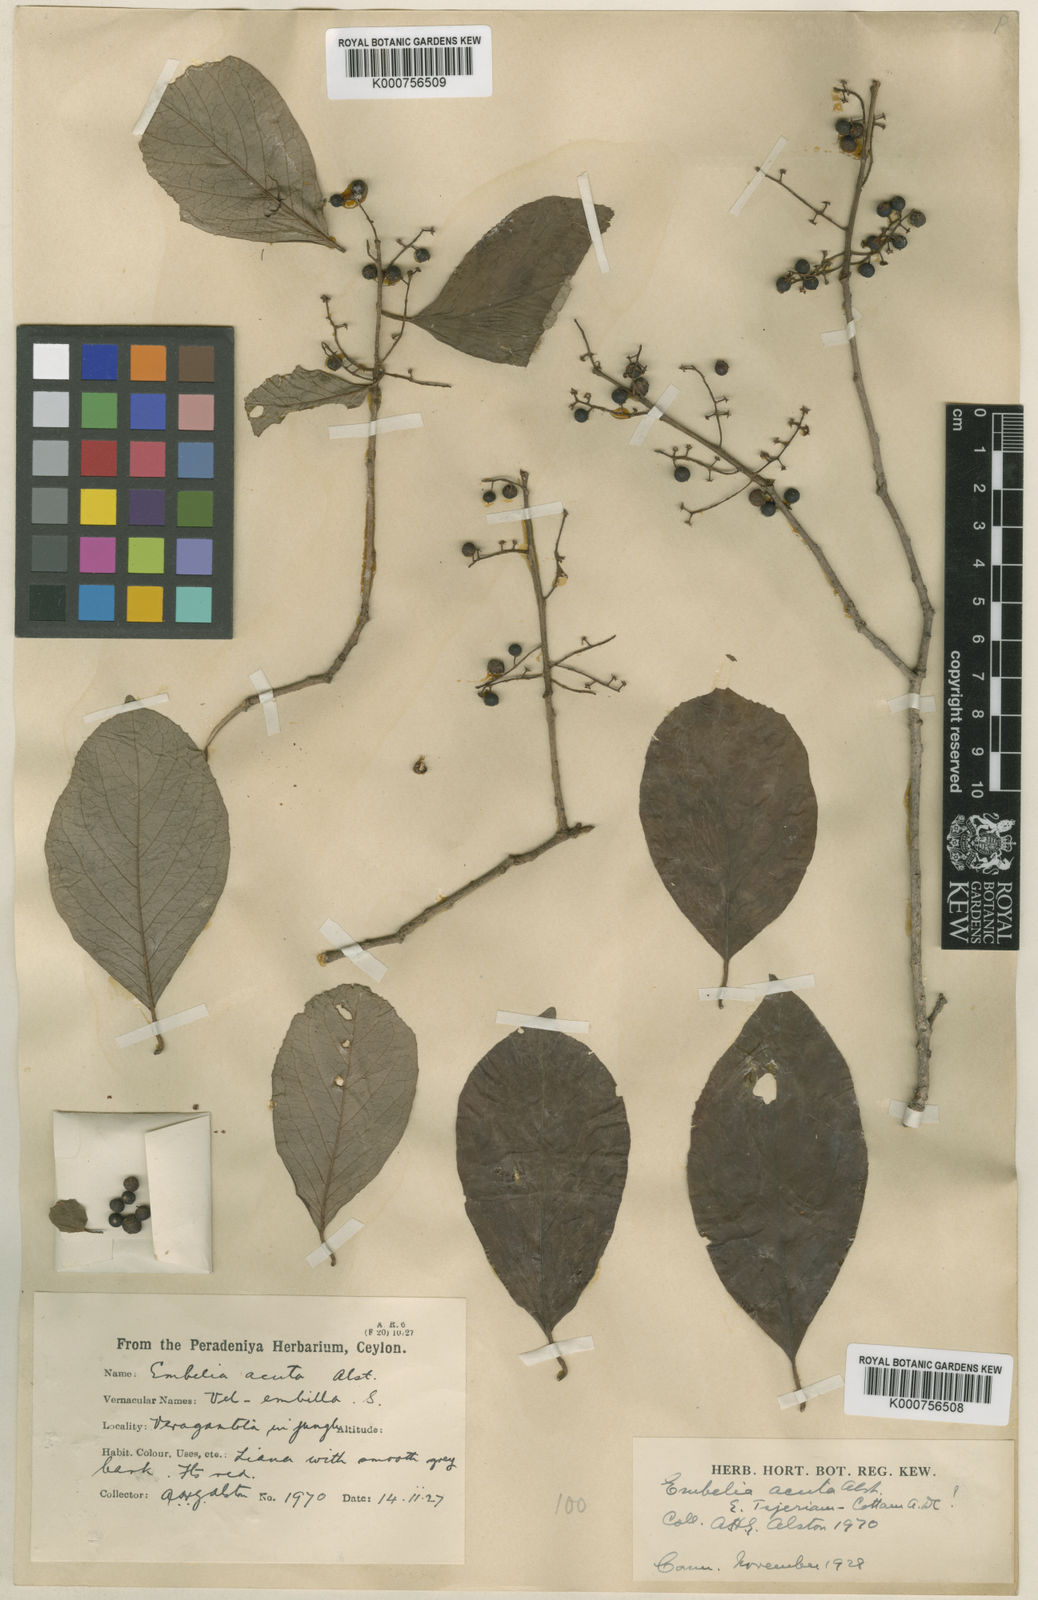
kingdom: Plantae
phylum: Tracheophyta
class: Magnoliopsida
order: Ericales
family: Primulaceae
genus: Embelia
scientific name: Embelia tsjeriam-cottam
